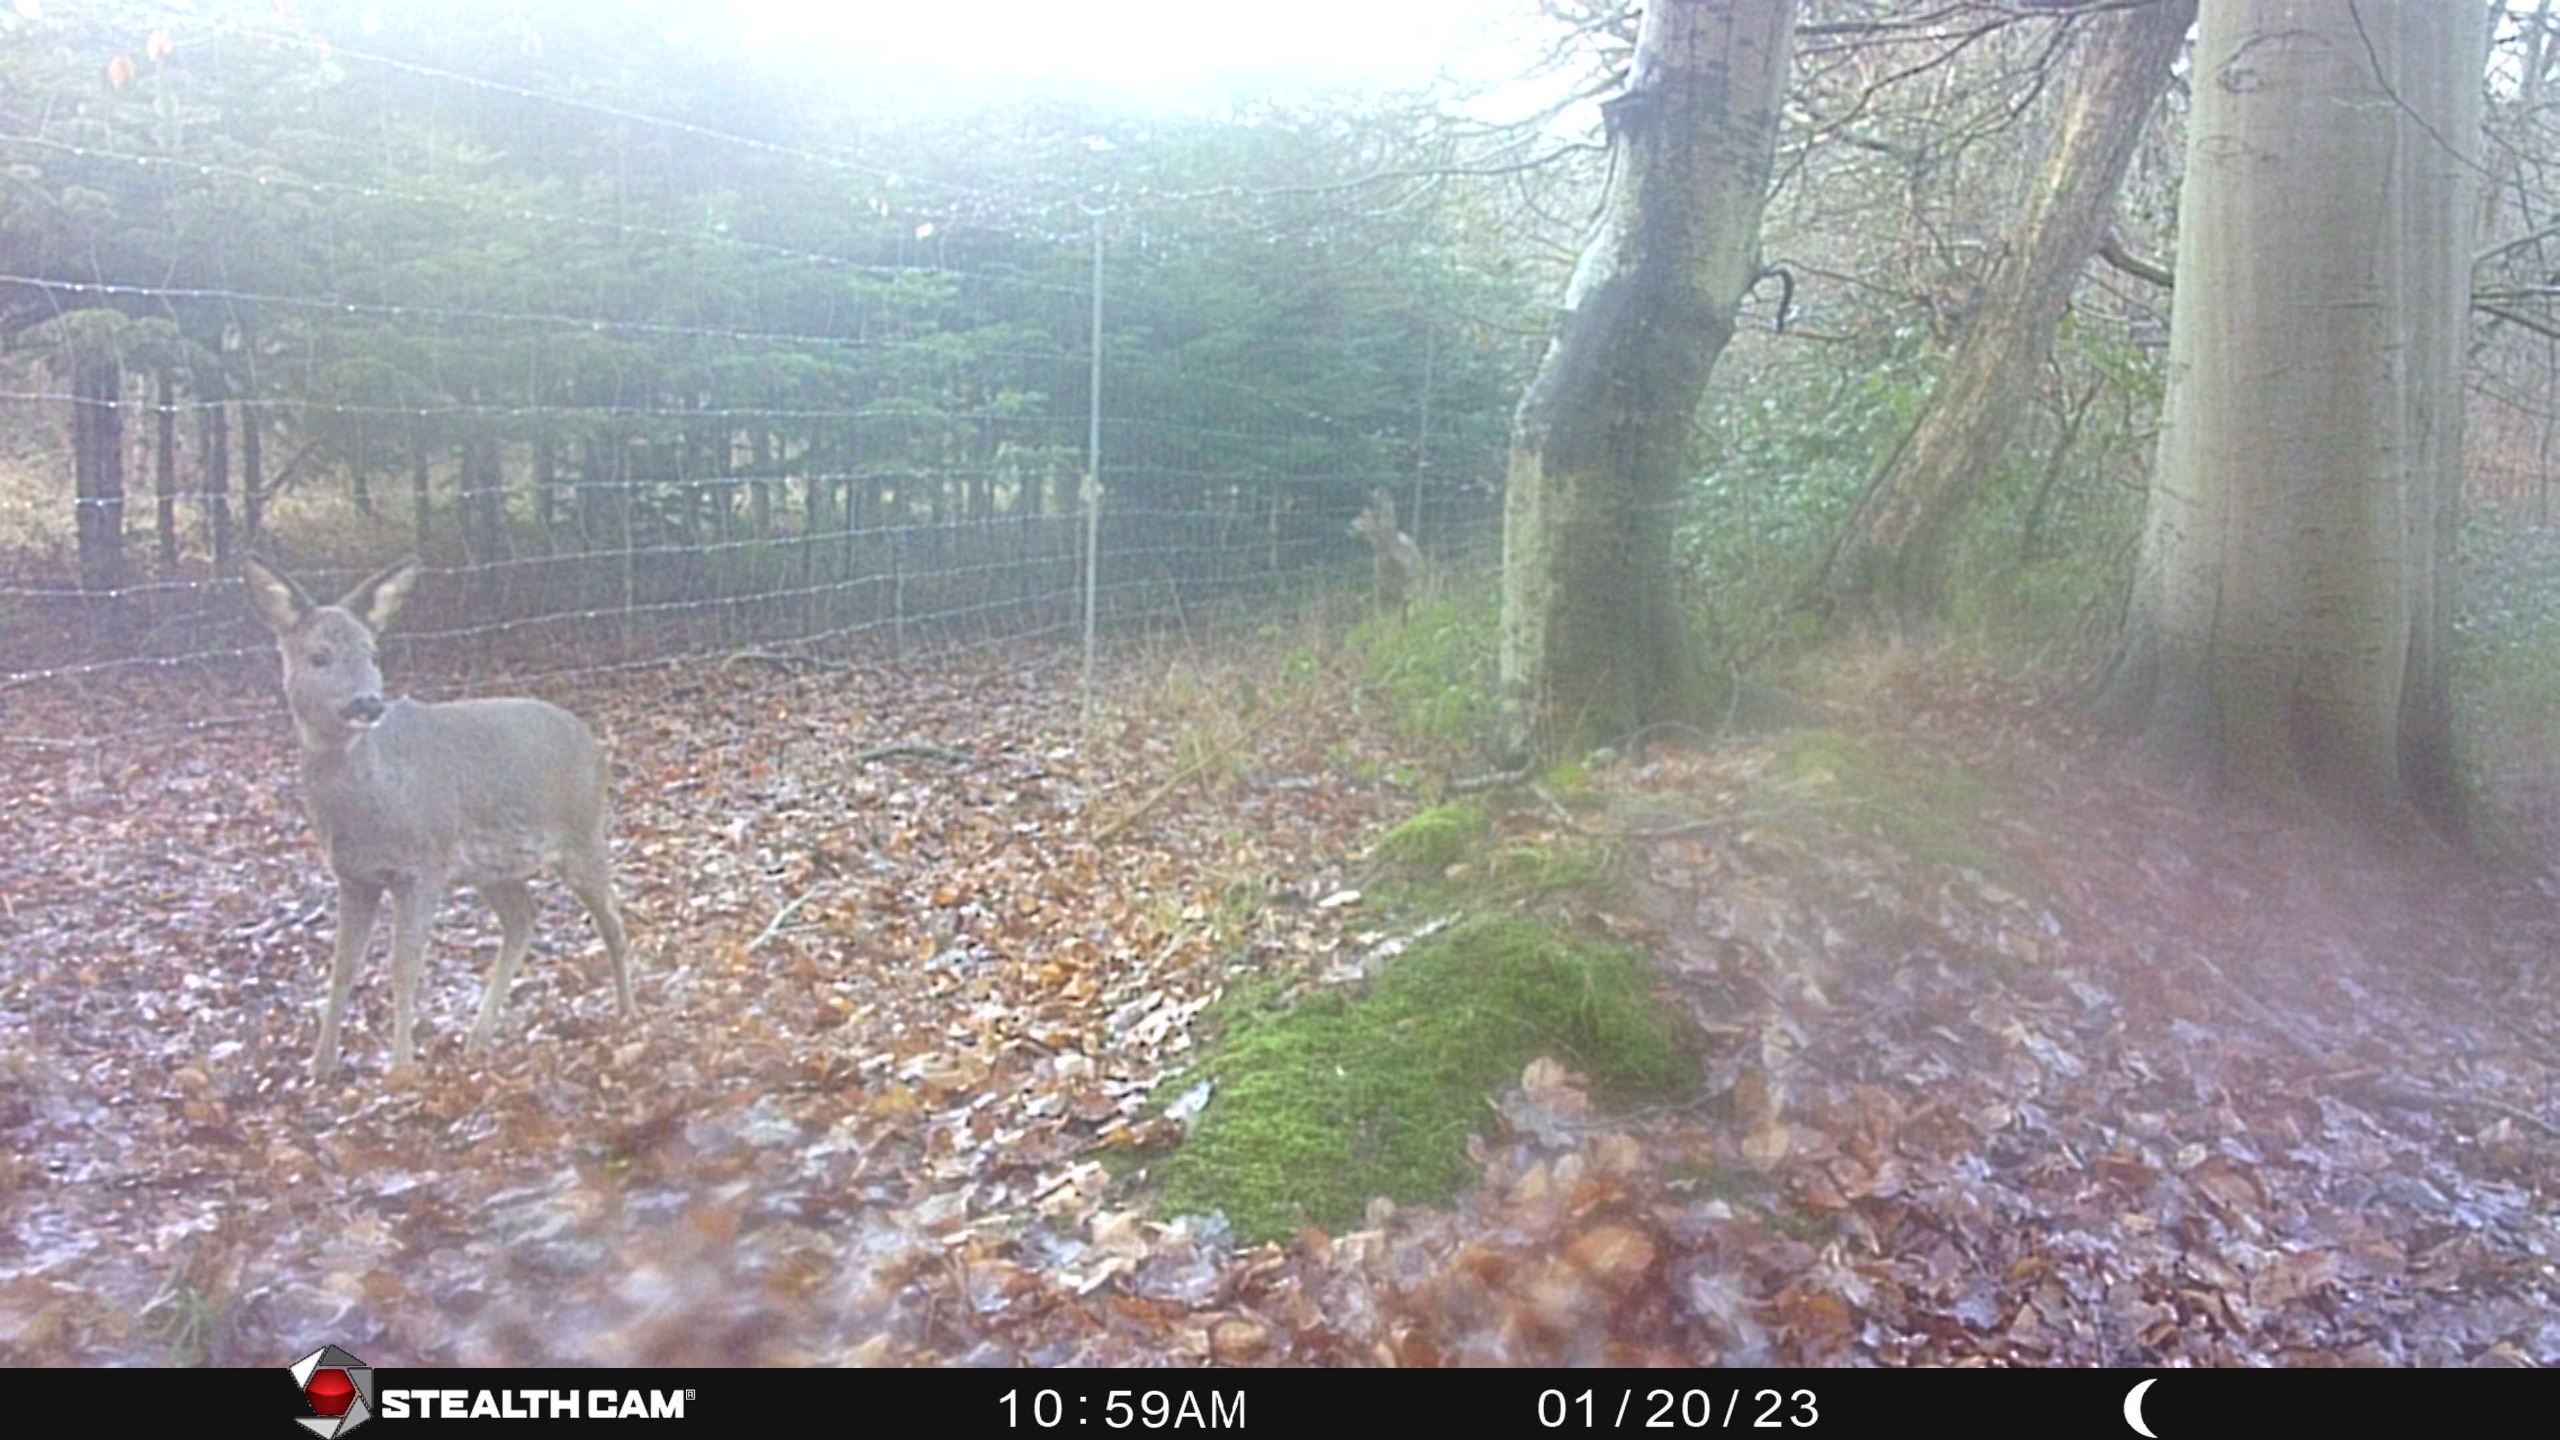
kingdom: Animalia
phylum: Chordata
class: Mammalia
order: Artiodactyla
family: Cervidae
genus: Capreolus
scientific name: Capreolus capreolus
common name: Rådyr
